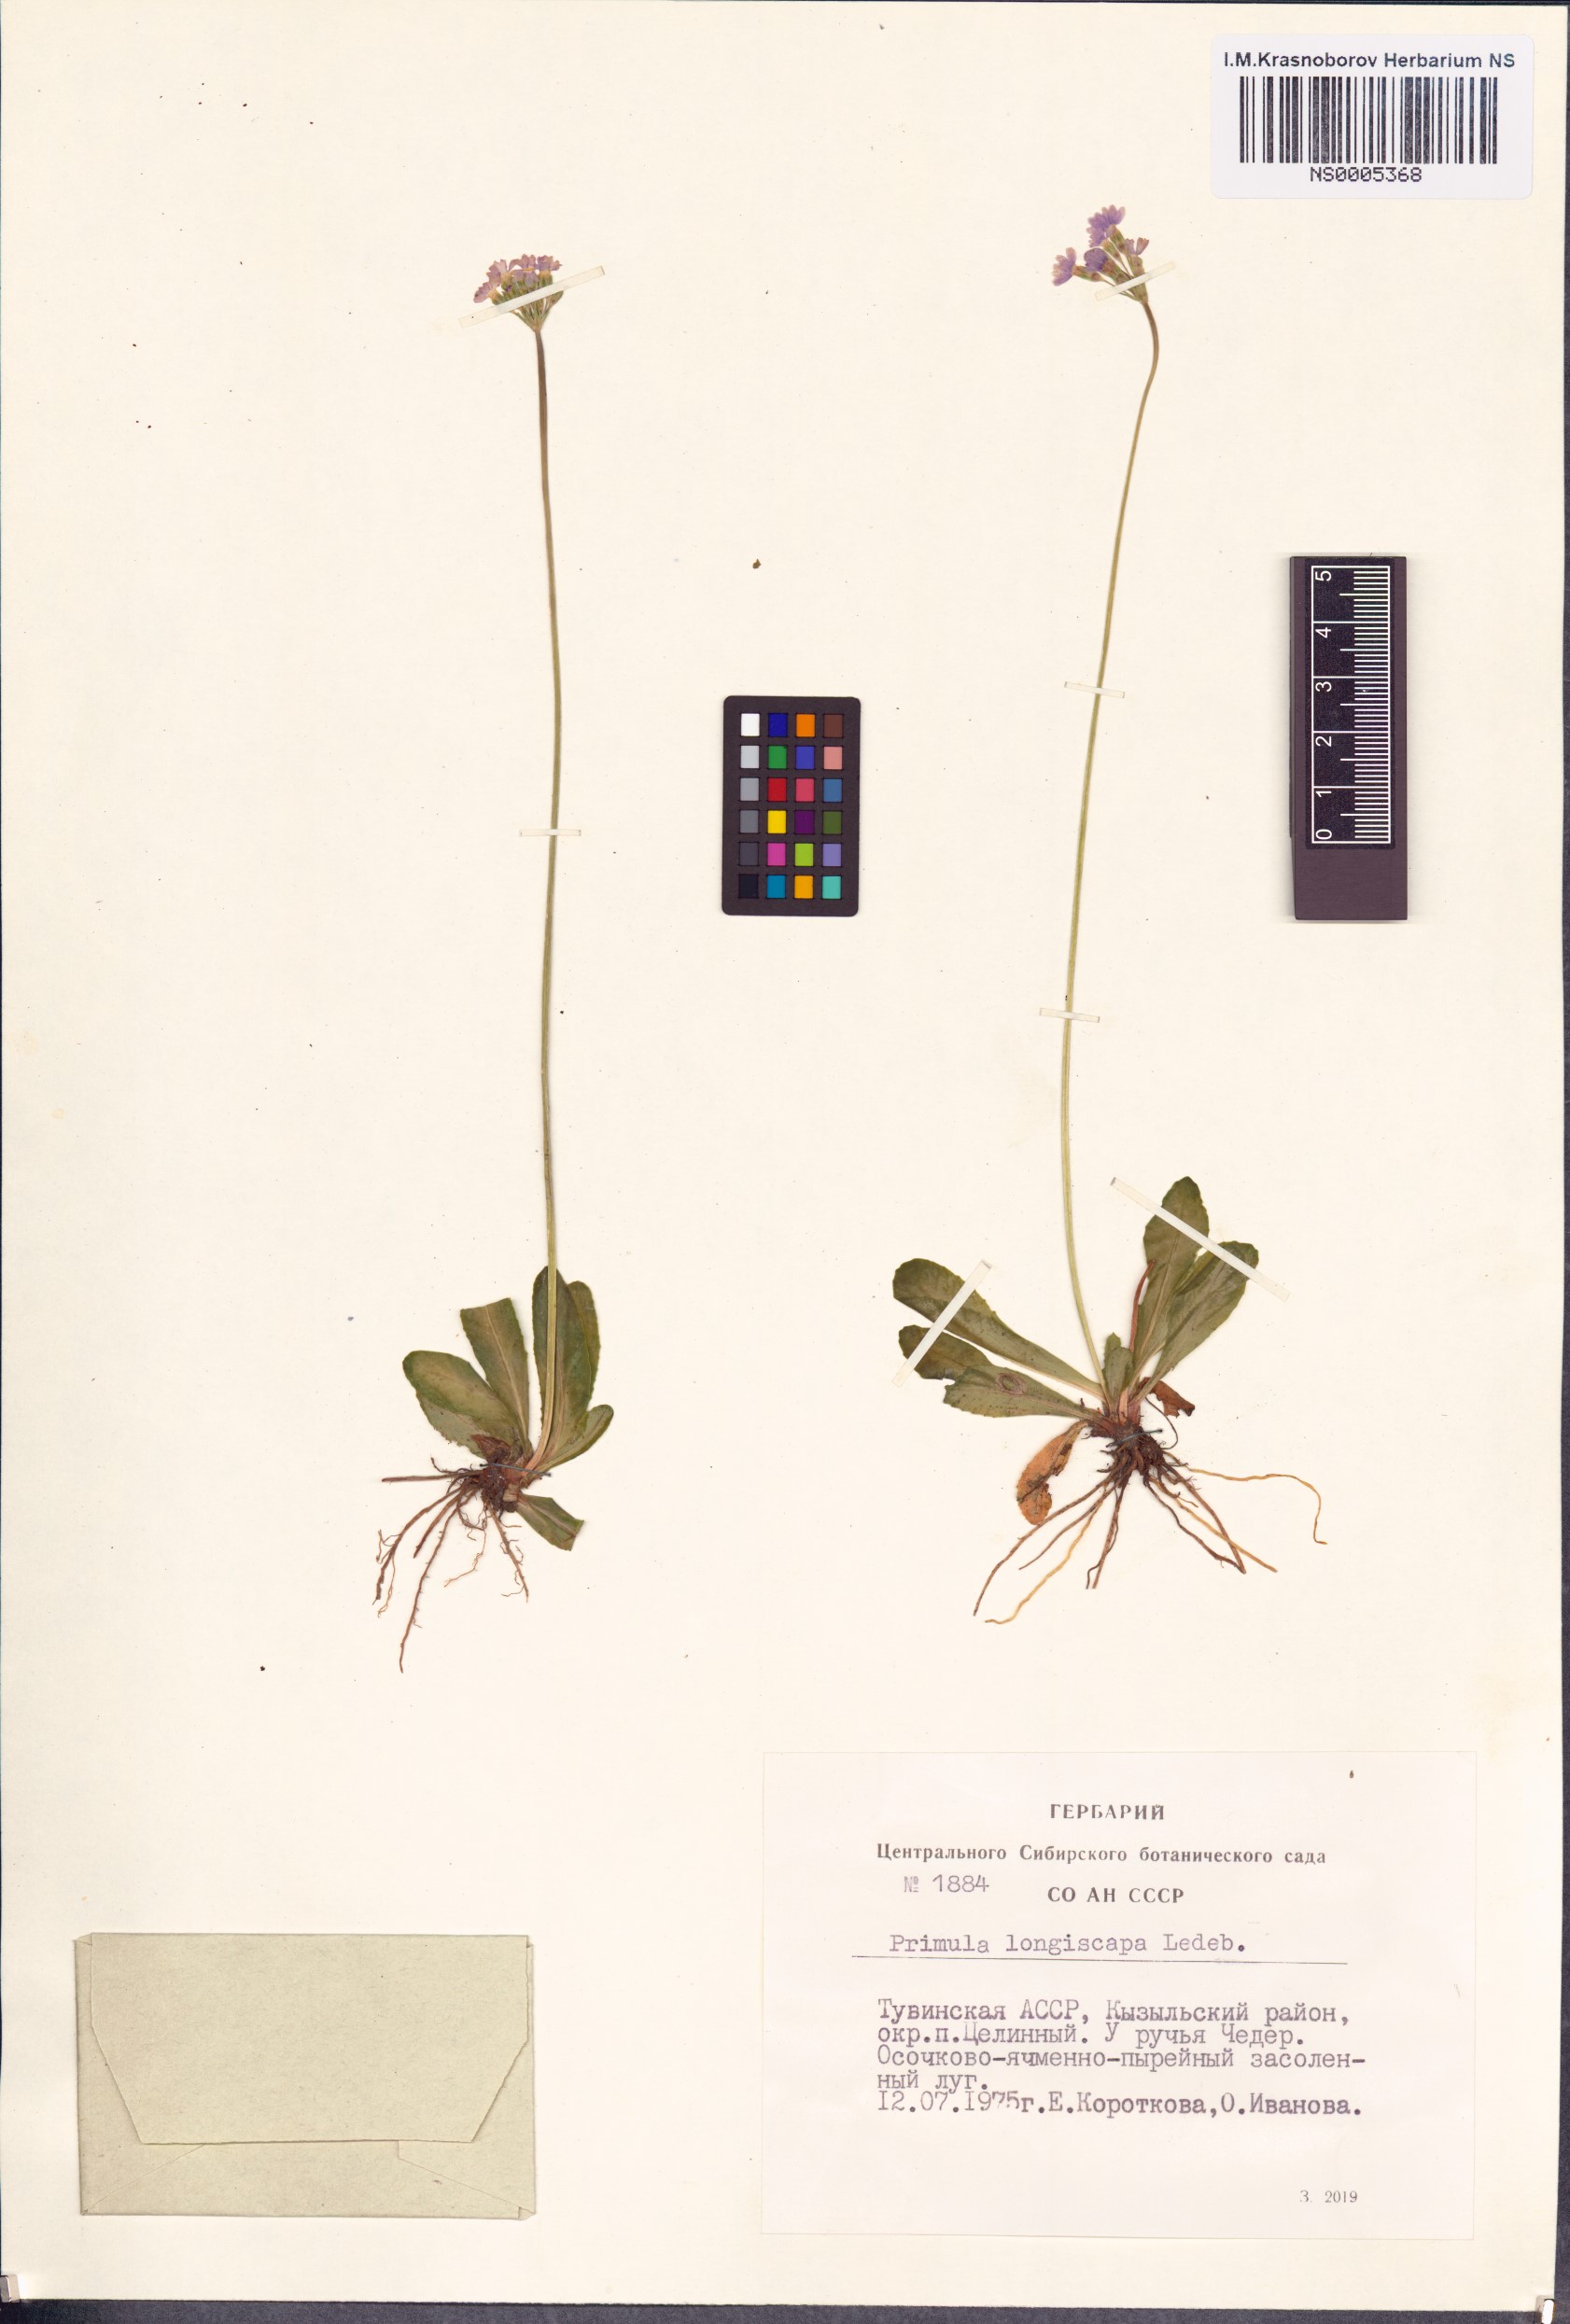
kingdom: Plantae
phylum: Tracheophyta
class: Magnoliopsida
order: Ericales
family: Primulaceae
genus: Primula
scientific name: Primula longiscapa
